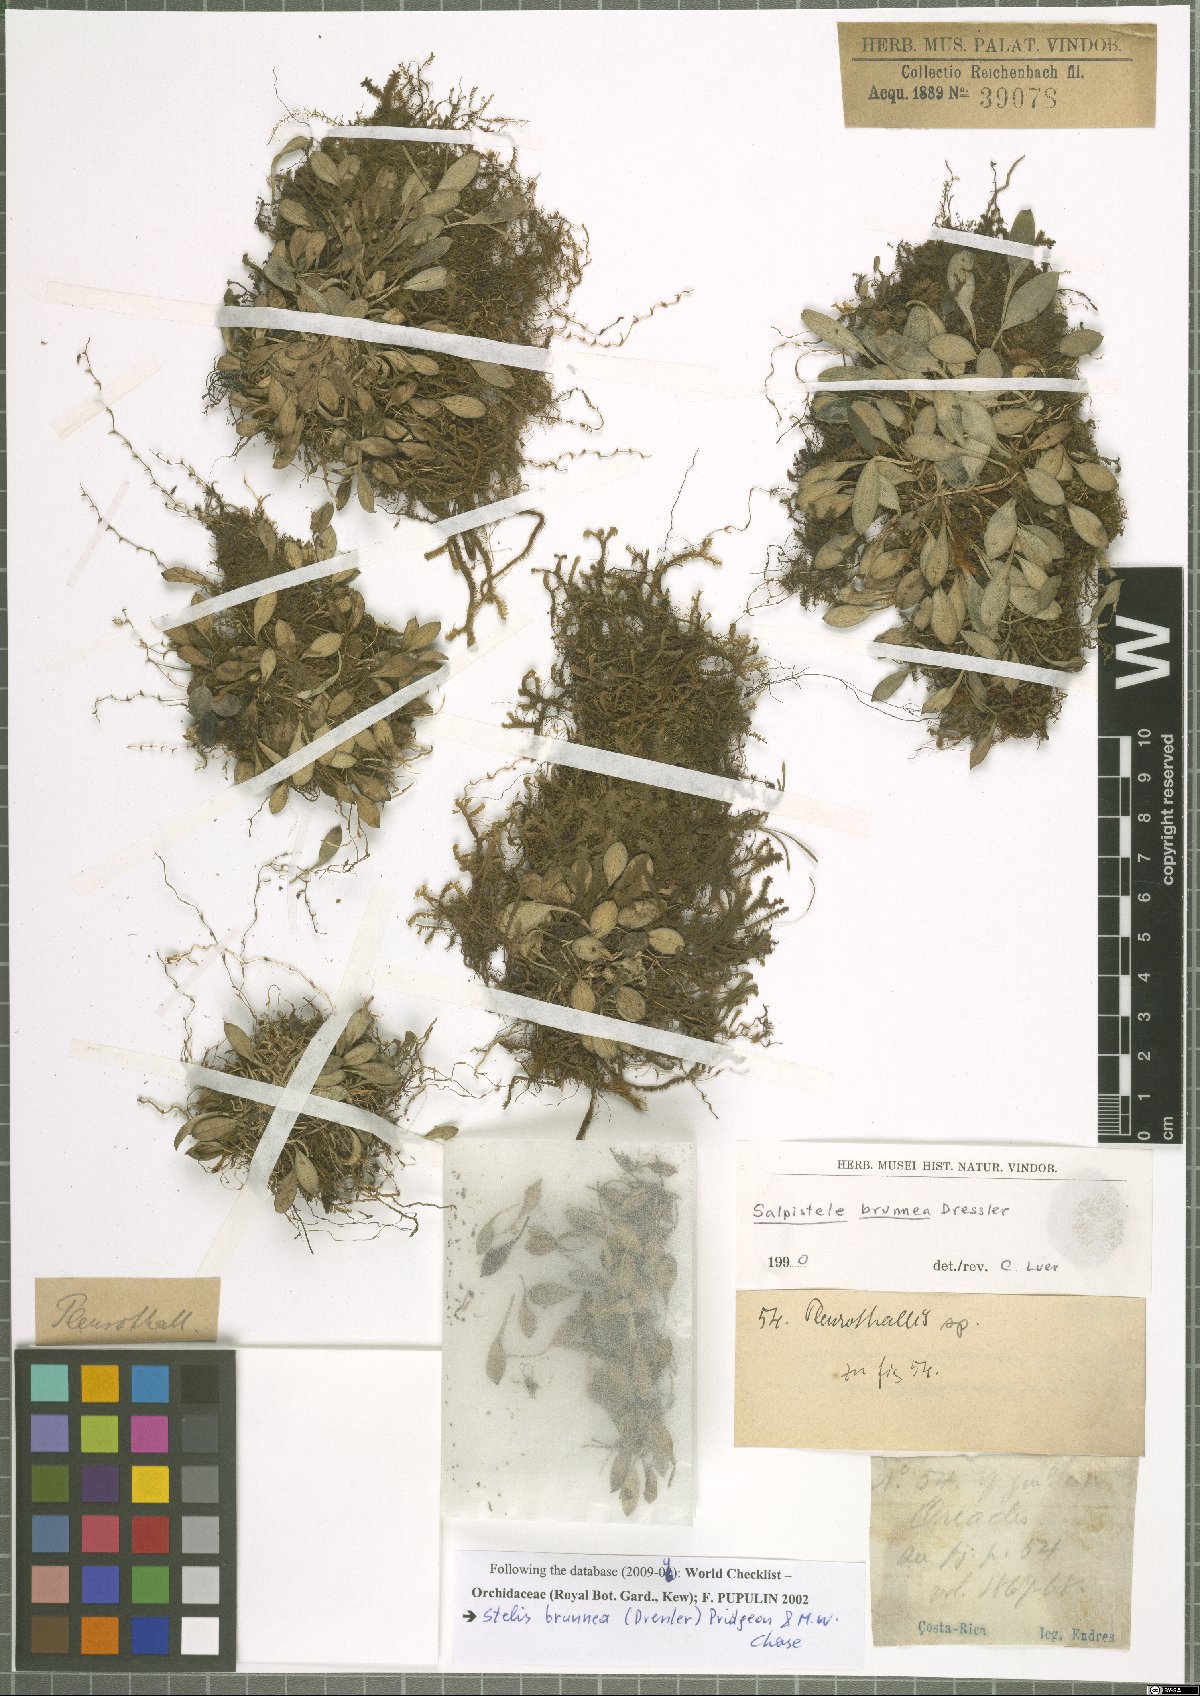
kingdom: Plantae
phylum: Tracheophyta
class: Liliopsida
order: Asparagales
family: Orchidaceae
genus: Stelis
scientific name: Stelis brunnea
